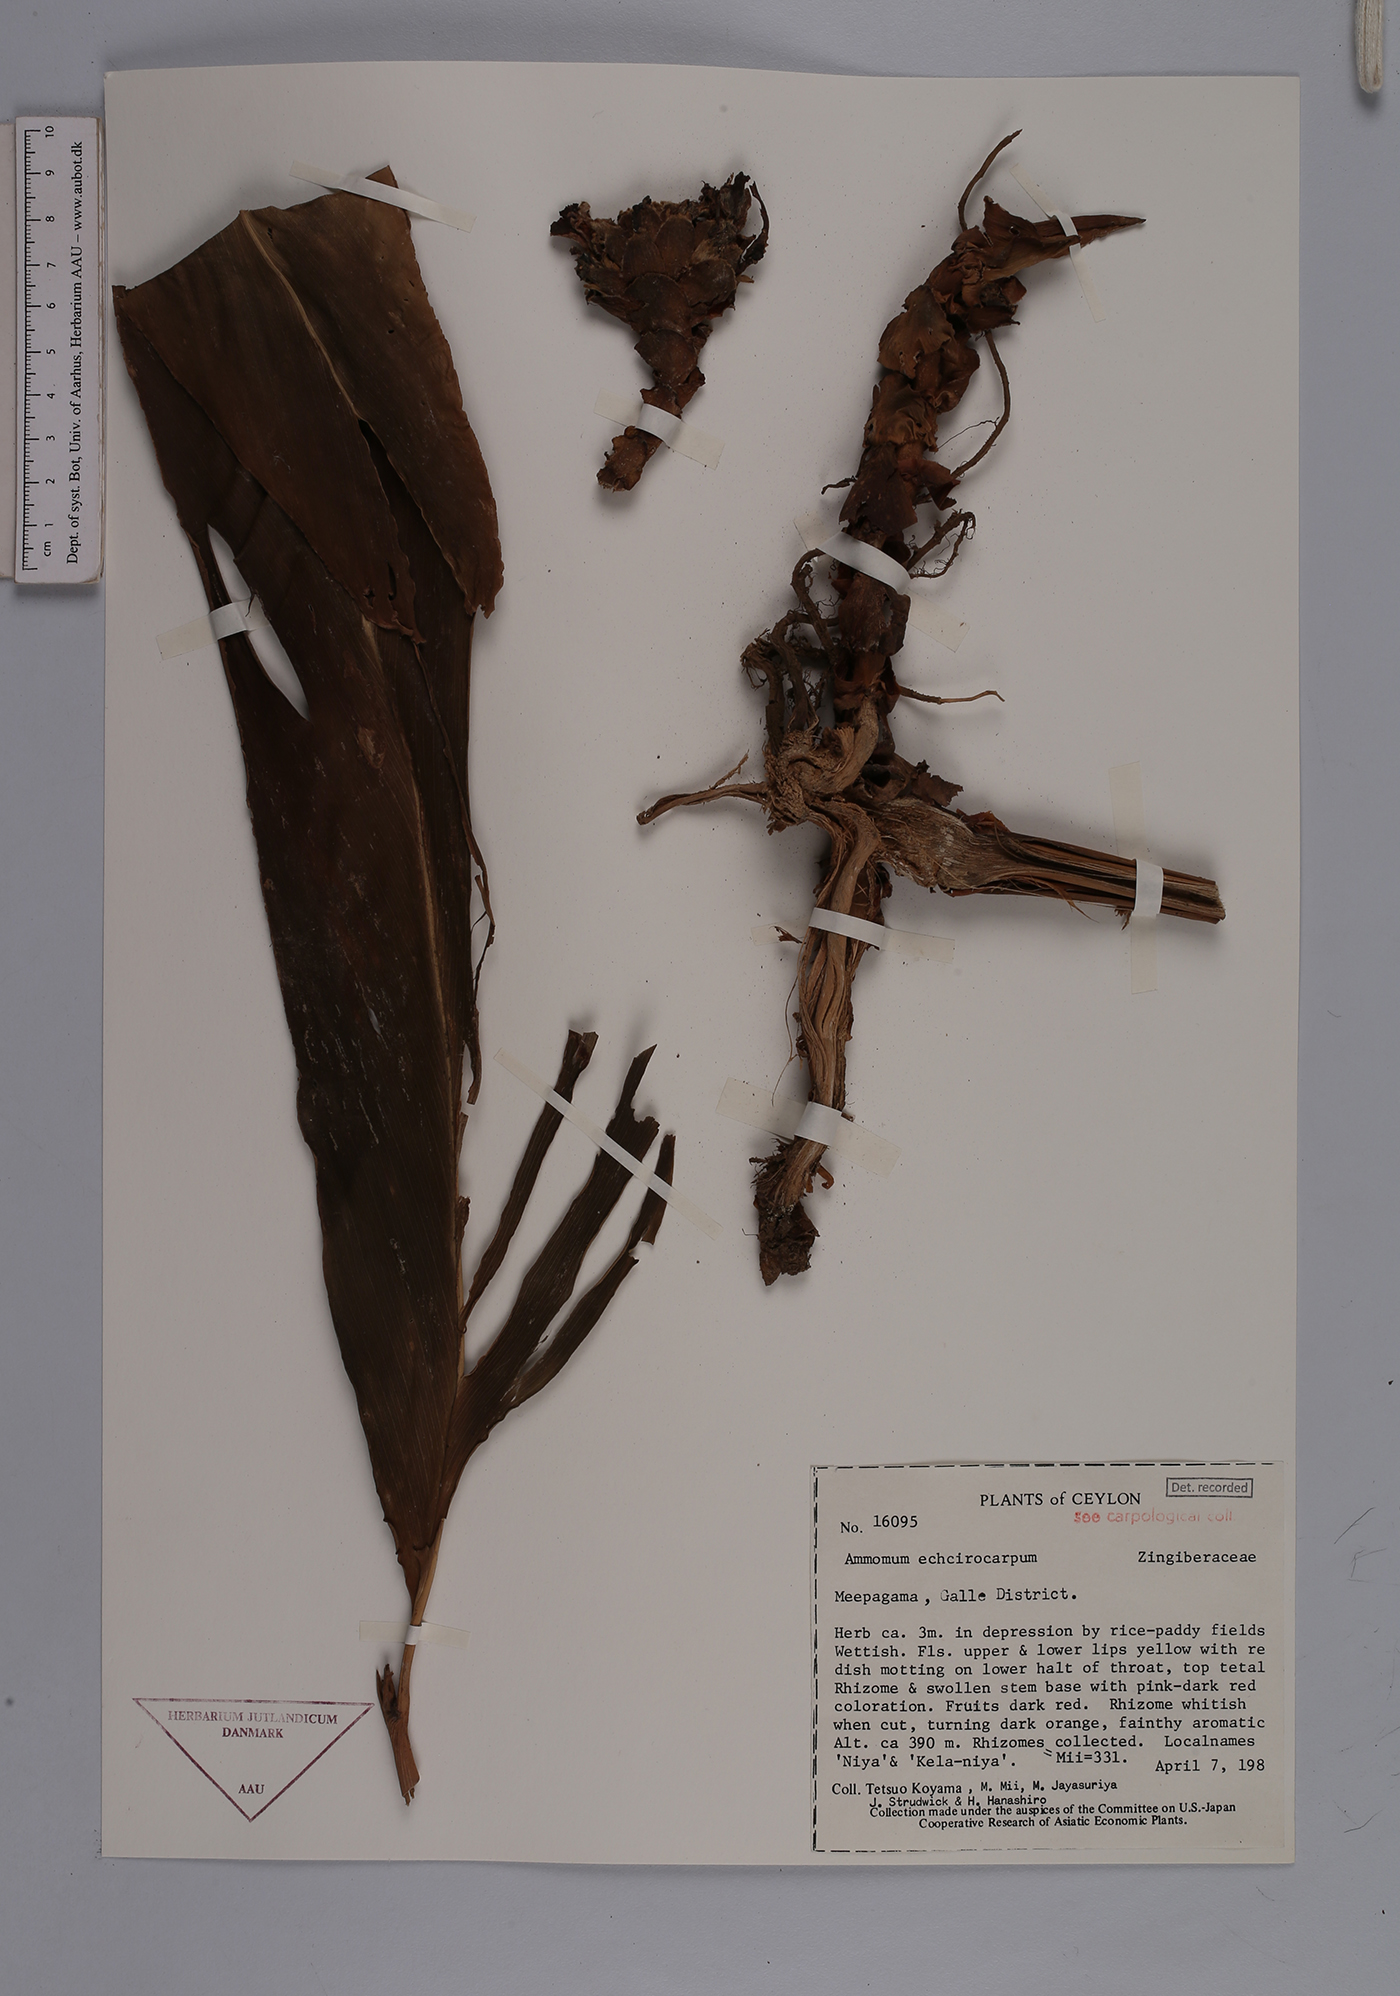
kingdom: Plantae
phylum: Tracheophyta
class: Liliopsida
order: Zingiberales
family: Zingiberaceae
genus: Amomum
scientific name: Amomum
